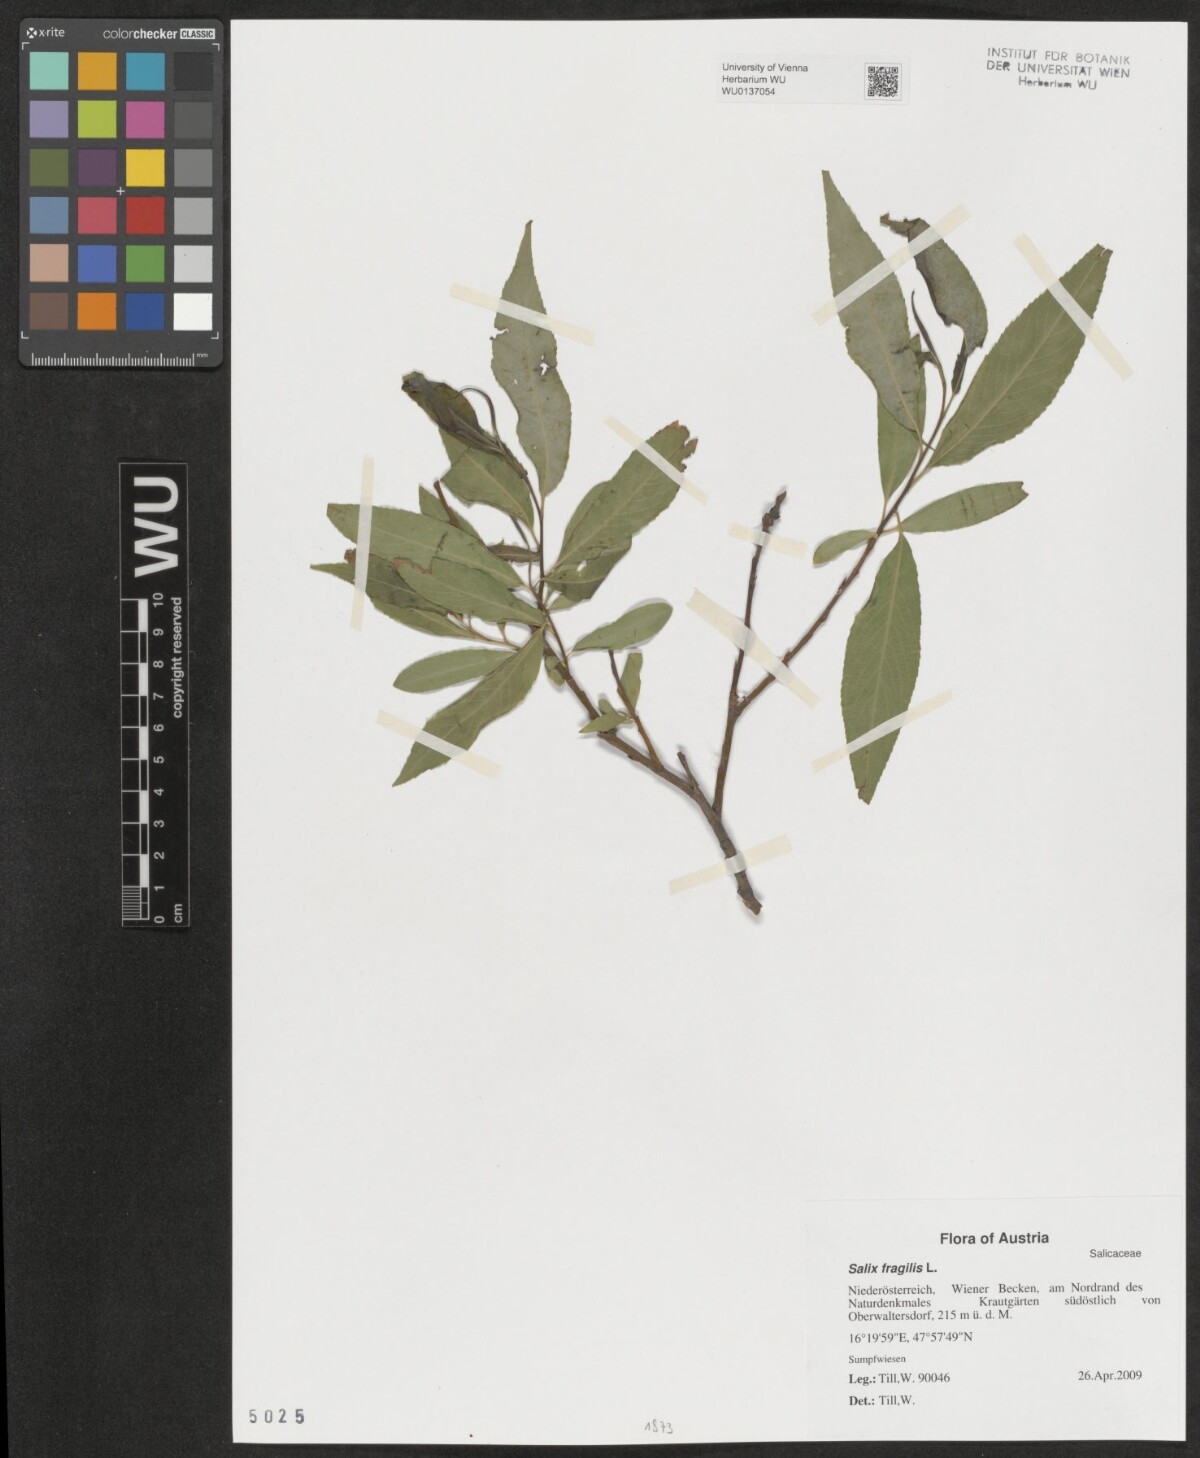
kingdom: Plantae
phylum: Tracheophyta
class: Magnoliopsida
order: Malpighiales
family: Salicaceae
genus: Salix
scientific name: Salix fragilis
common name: Crack willow
